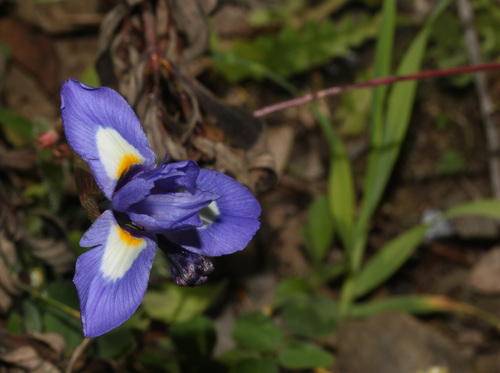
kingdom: Plantae
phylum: Tracheophyta
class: Liliopsida
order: Asparagales
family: Iridaceae
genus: Moraea
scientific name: Moraea sisyrinchium
